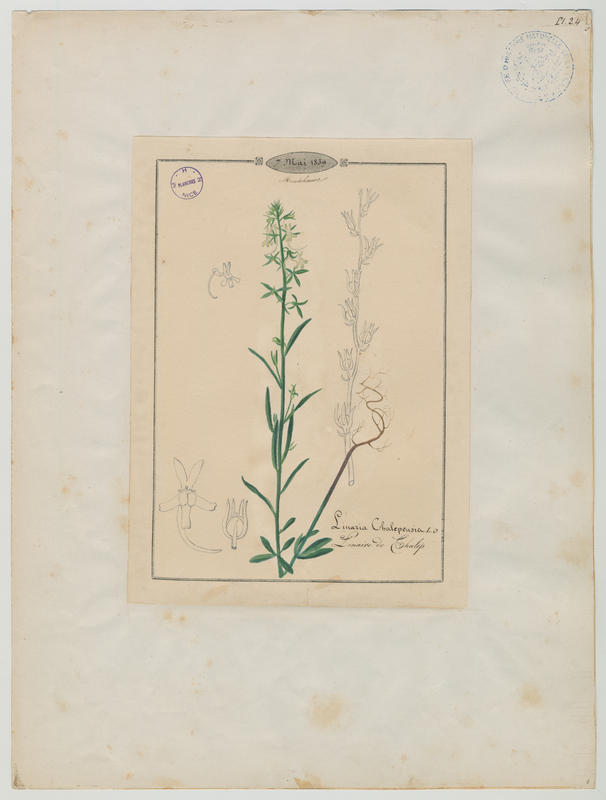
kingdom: Plantae
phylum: Tracheophyta
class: Magnoliopsida
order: Lamiales
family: Plantaginaceae
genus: Linaria
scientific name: Linaria chalepensis
